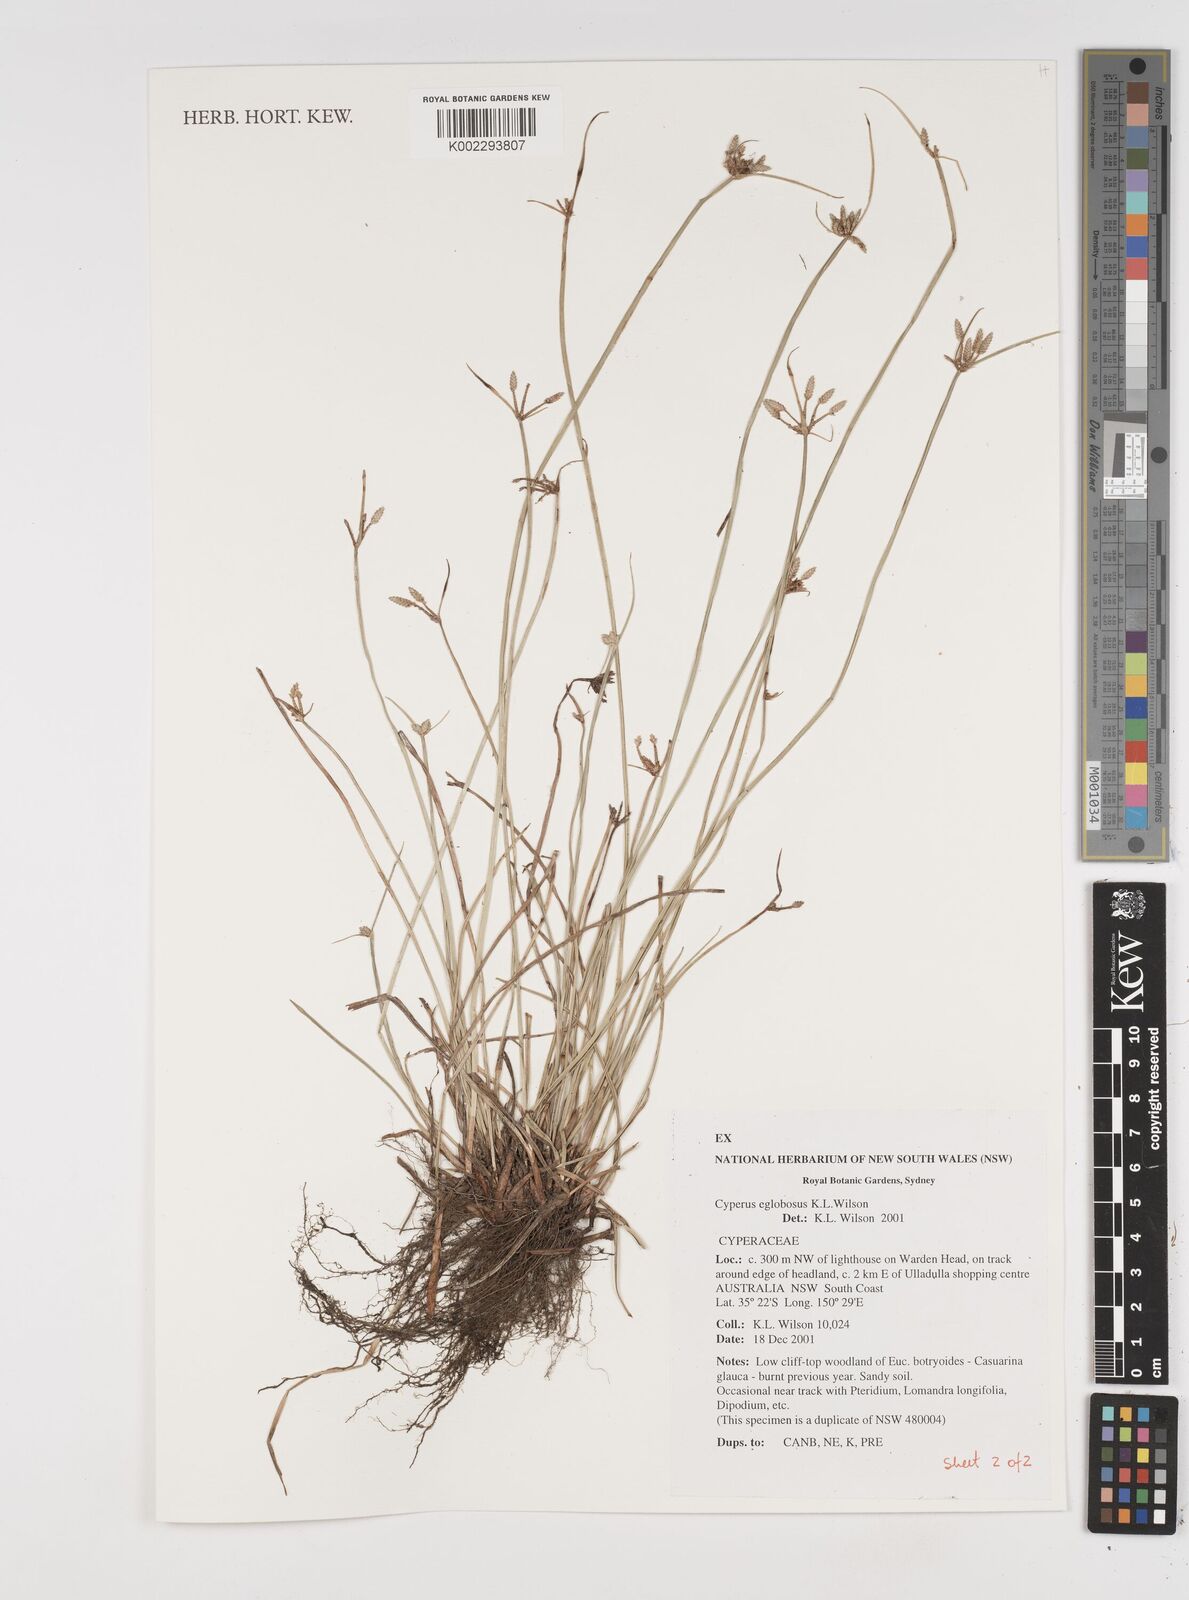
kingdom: Plantae
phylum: Tracheophyta
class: Liliopsida
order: Poales
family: Cyperaceae
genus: Cyperus
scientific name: Cyperus eglobosus
